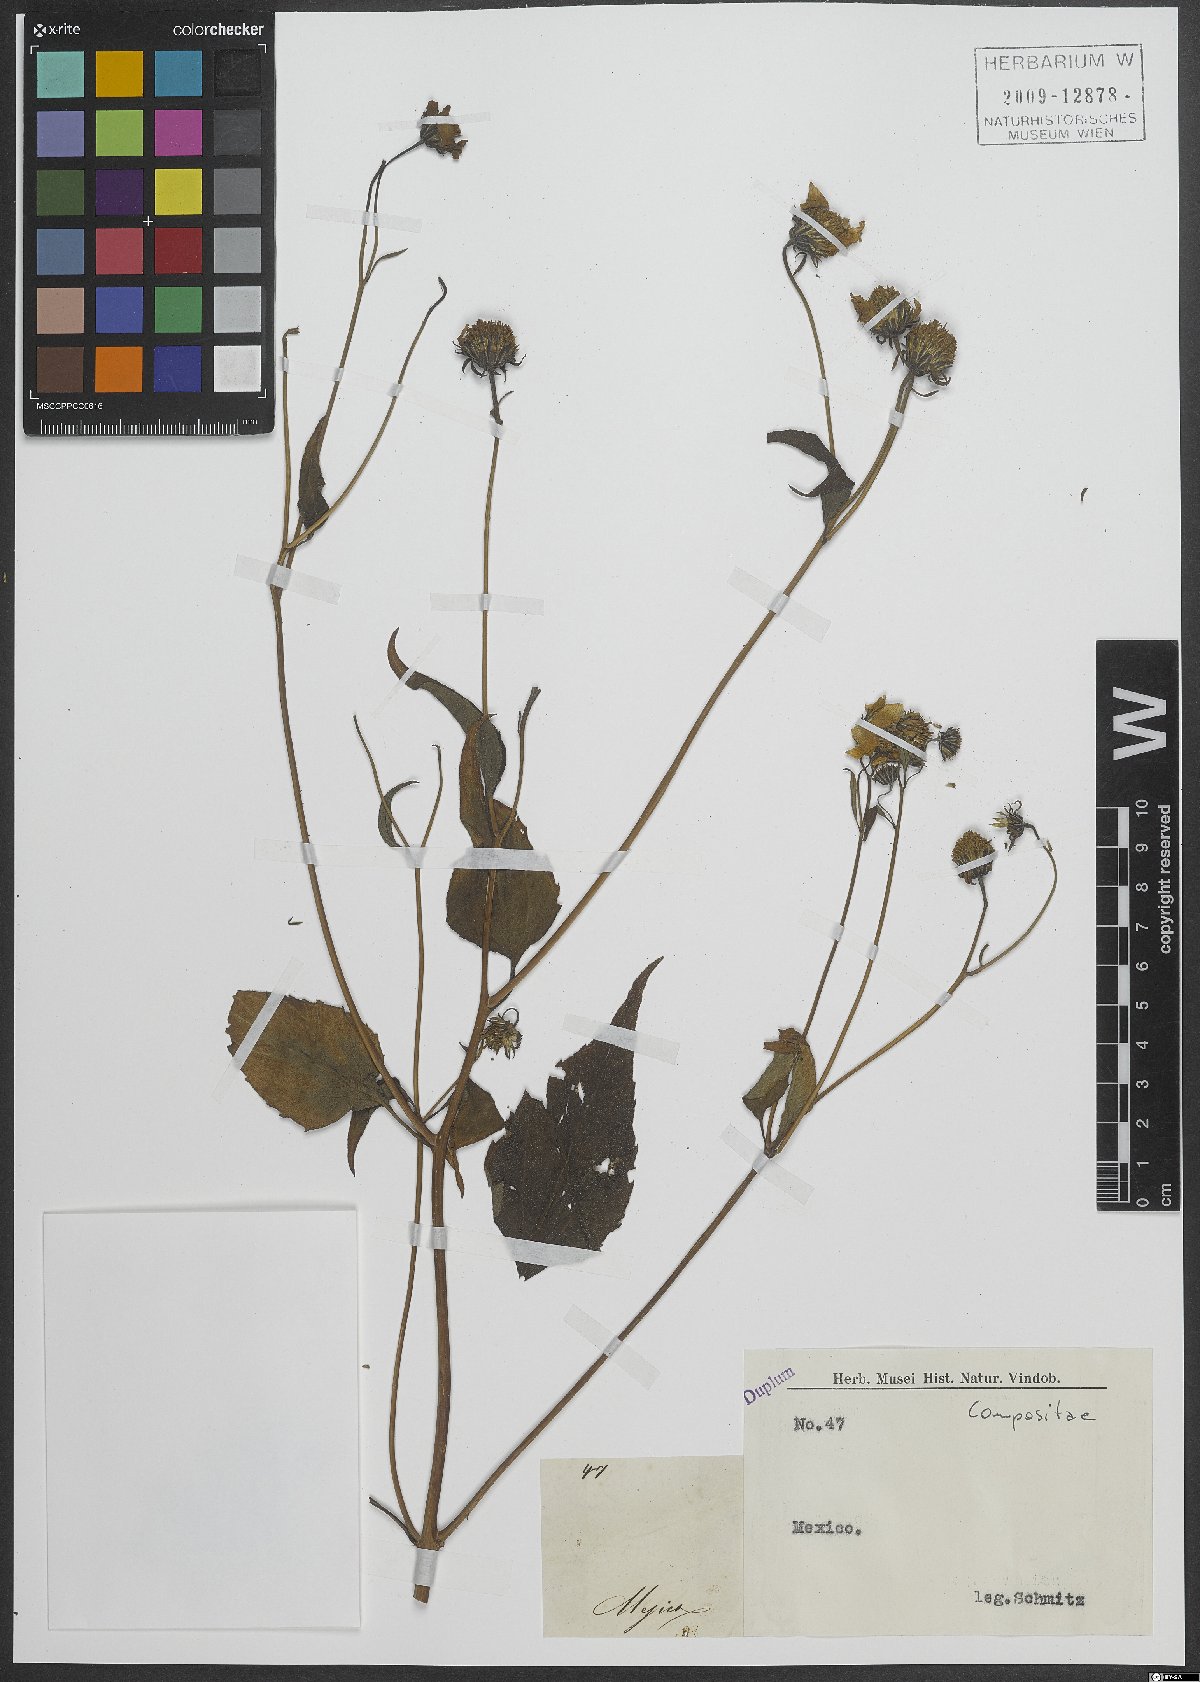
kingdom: Plantae
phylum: Tracheophyta
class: Magnoliopsida
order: Asterales
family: Asteraceae
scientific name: Asteraceae
